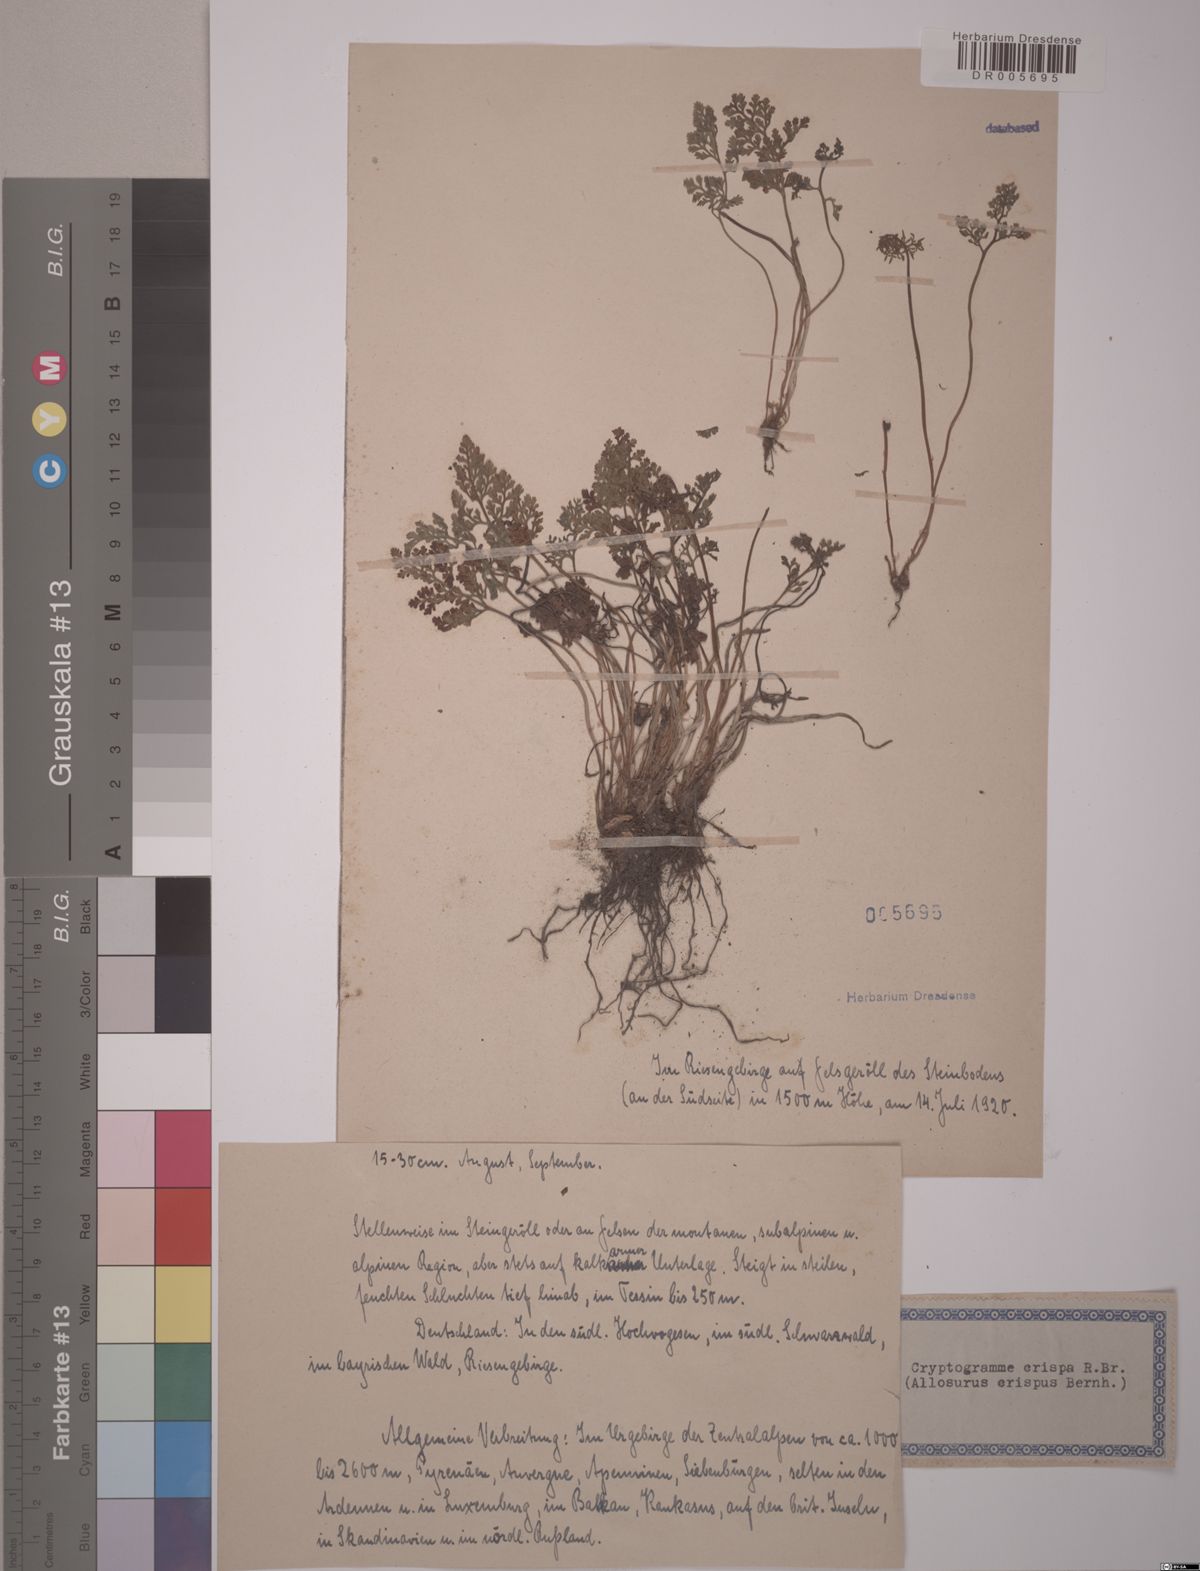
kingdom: Plantae
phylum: Tracheophyta
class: Polypodiopsida
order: Polypodiales
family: Pteridaceae
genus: Cryptogramma
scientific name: Cryptogramma crispa
